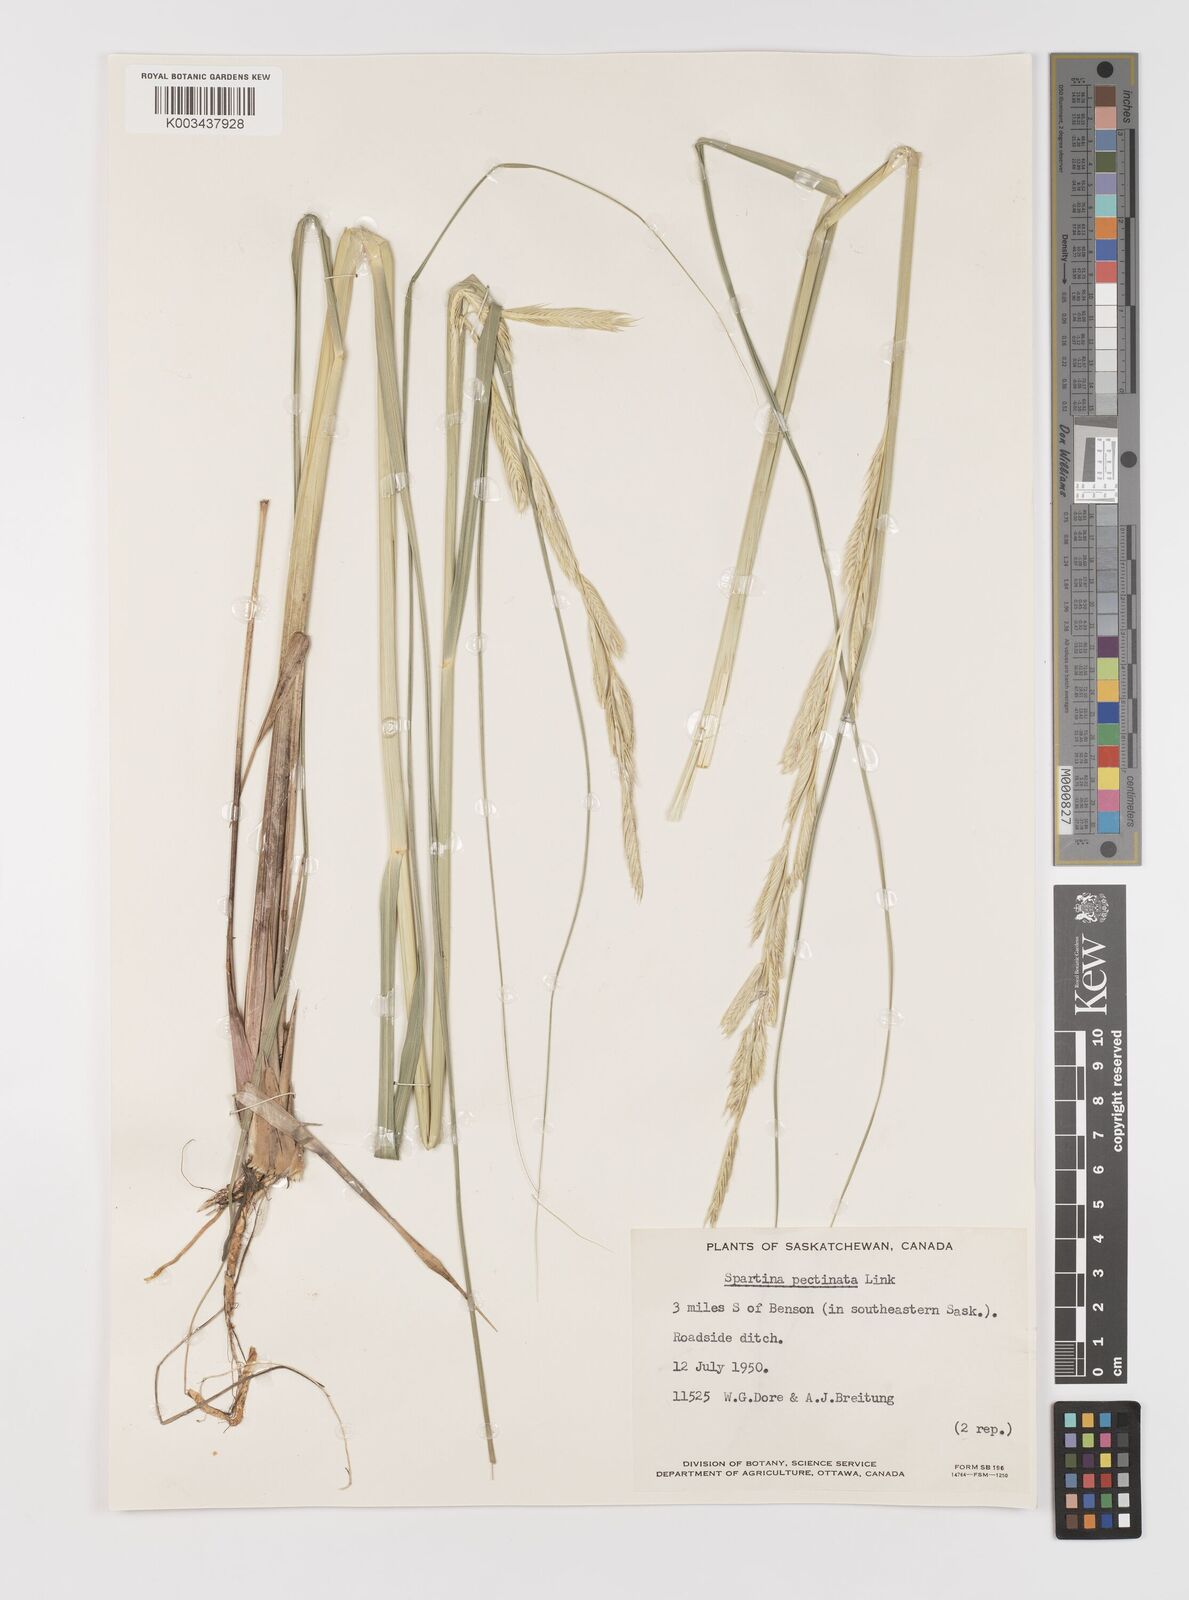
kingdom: Plantae
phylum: Tracheophyta
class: Liliopsida
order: Poales
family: Poaceae
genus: Sporobolus
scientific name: Sporobolus michauxianus
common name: Freshwater cordgrass
